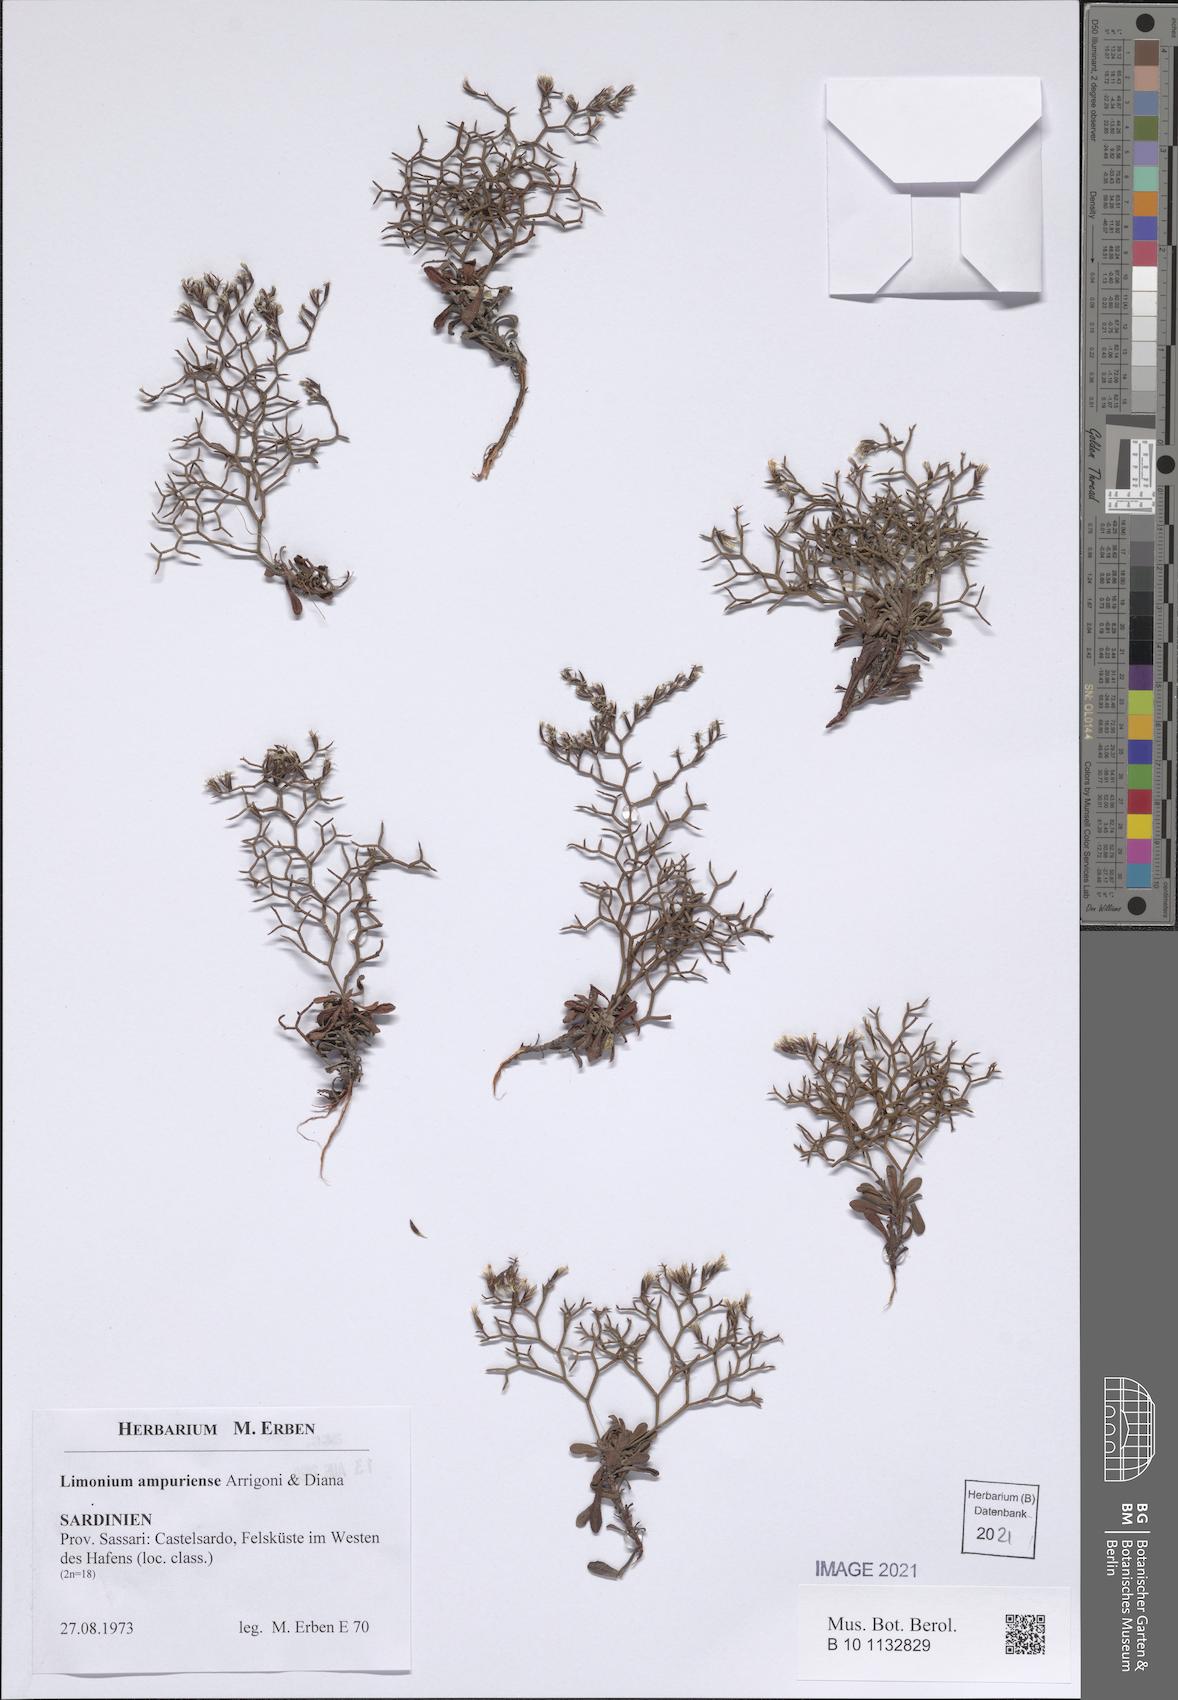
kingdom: Plantae
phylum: Tracheophyta
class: Magnoliopsida
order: Caryophyllales
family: Plumbaginaceae
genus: Limonium
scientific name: Limonium ampuriense
